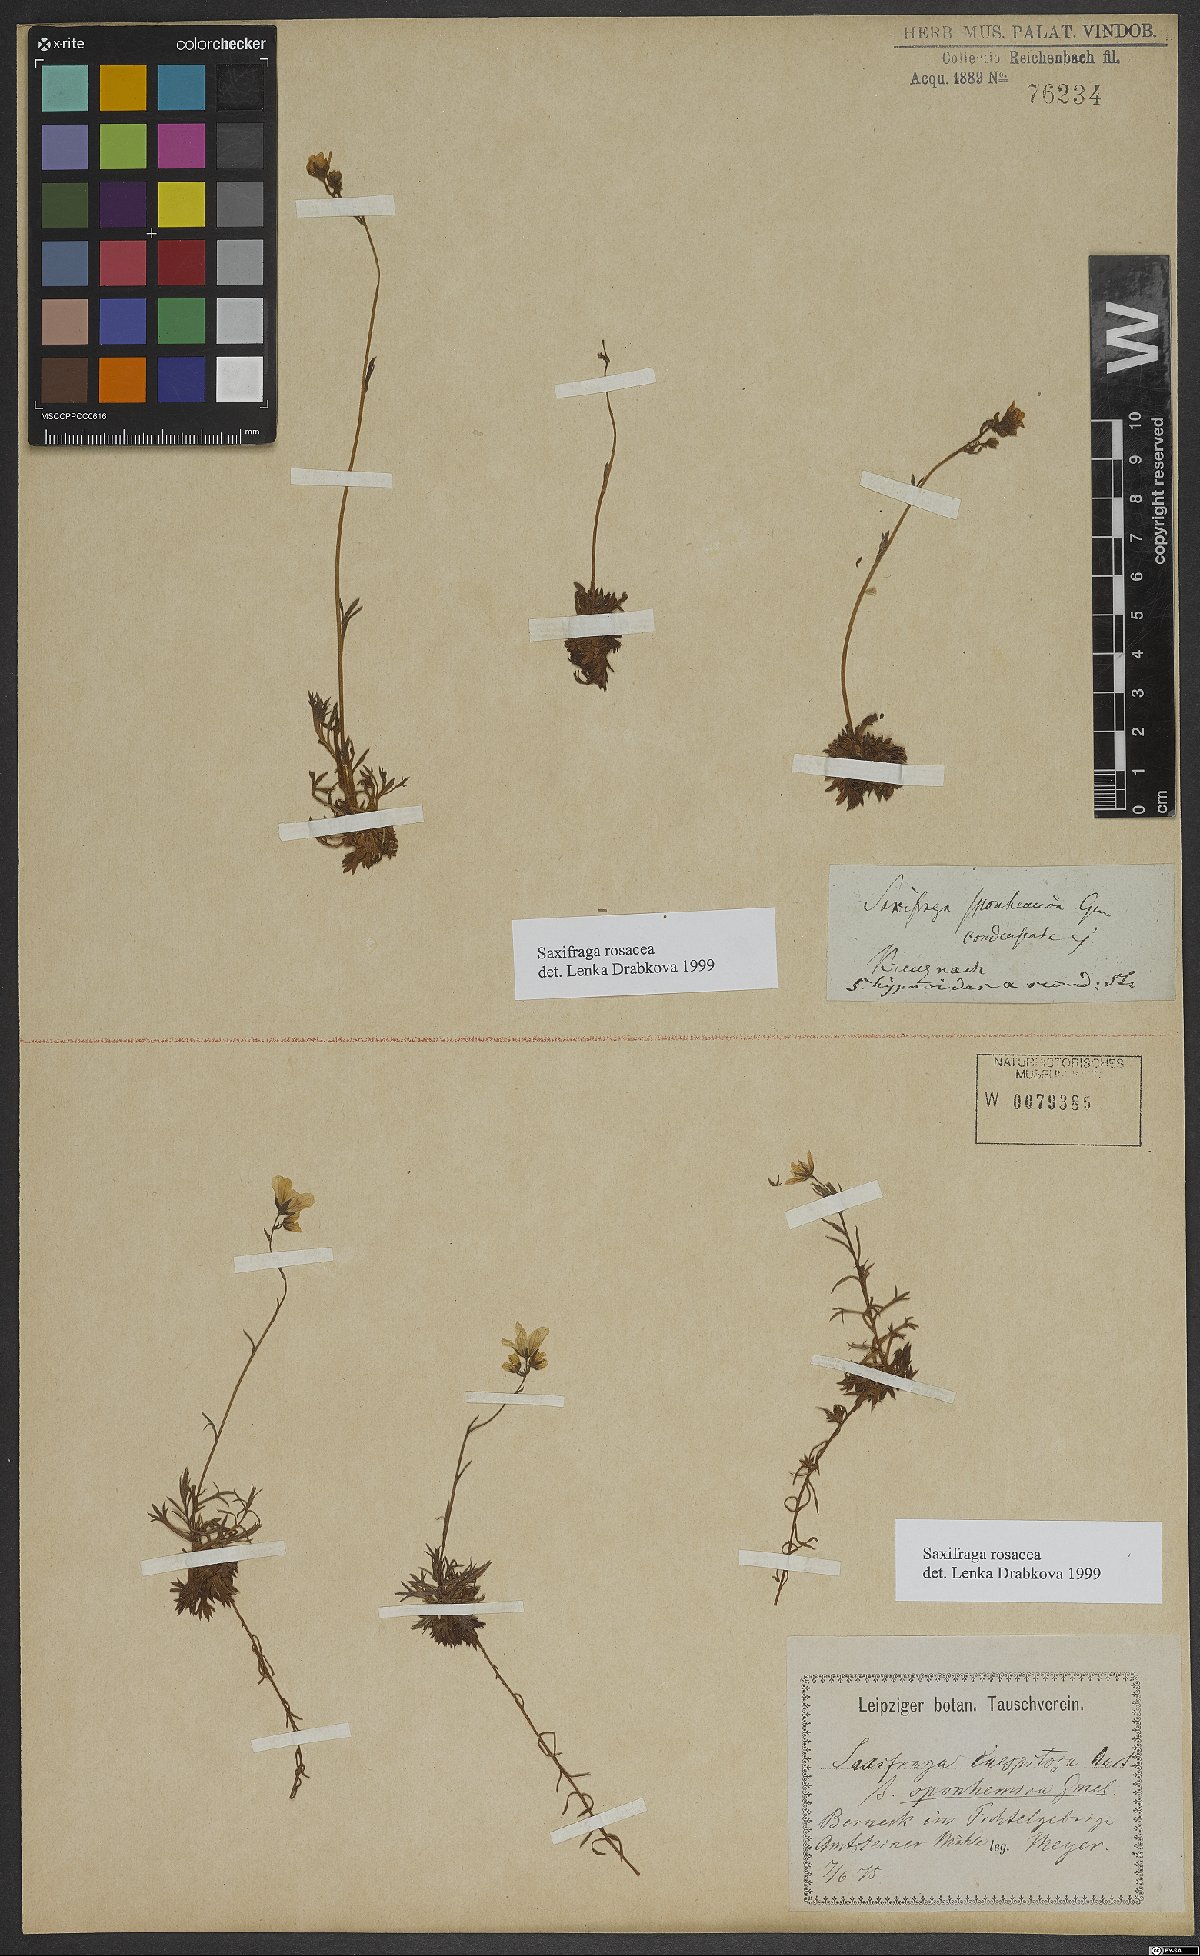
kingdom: Plantae
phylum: Tracheophyta
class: Magnoliopsida
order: Saxifragales
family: Saxifragaceae
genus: Saxifraga
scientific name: Saxifraga rosacea
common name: Irish saxifrage
